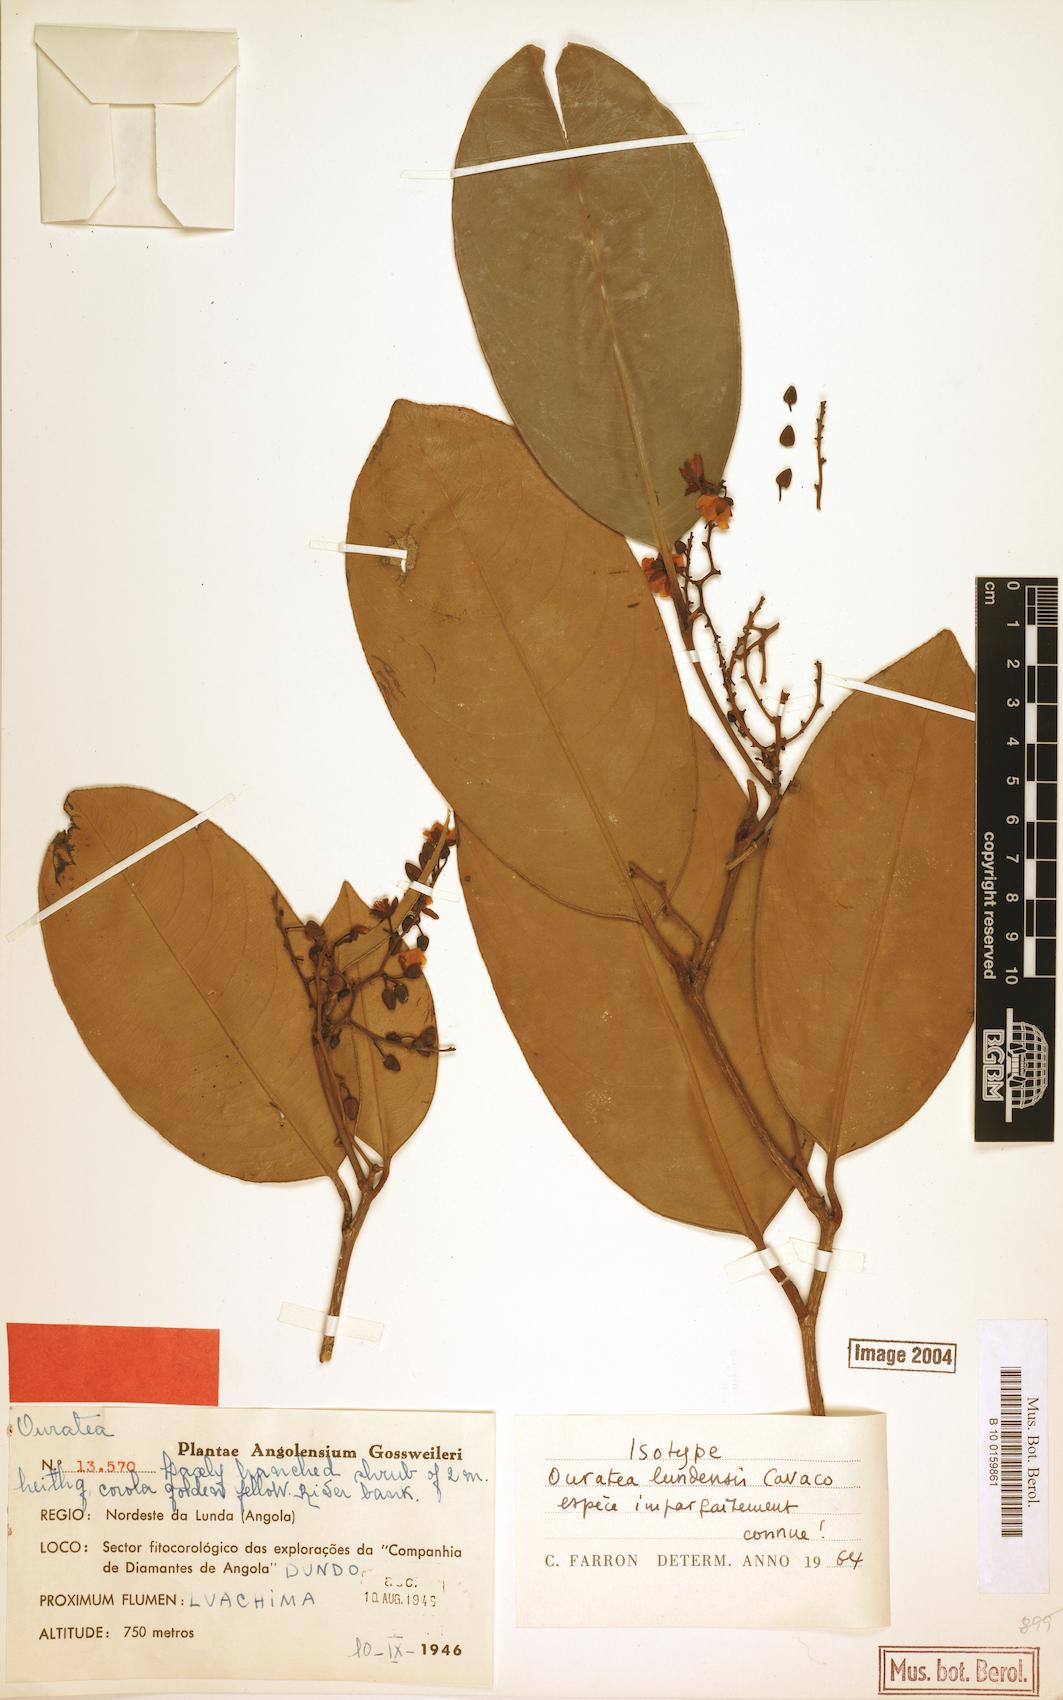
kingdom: Plantae
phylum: Tracheophyta
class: Magnoliopsida
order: Malpighiales
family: Ochnaceae
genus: Campylospermum
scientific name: Campylospermum laeve
